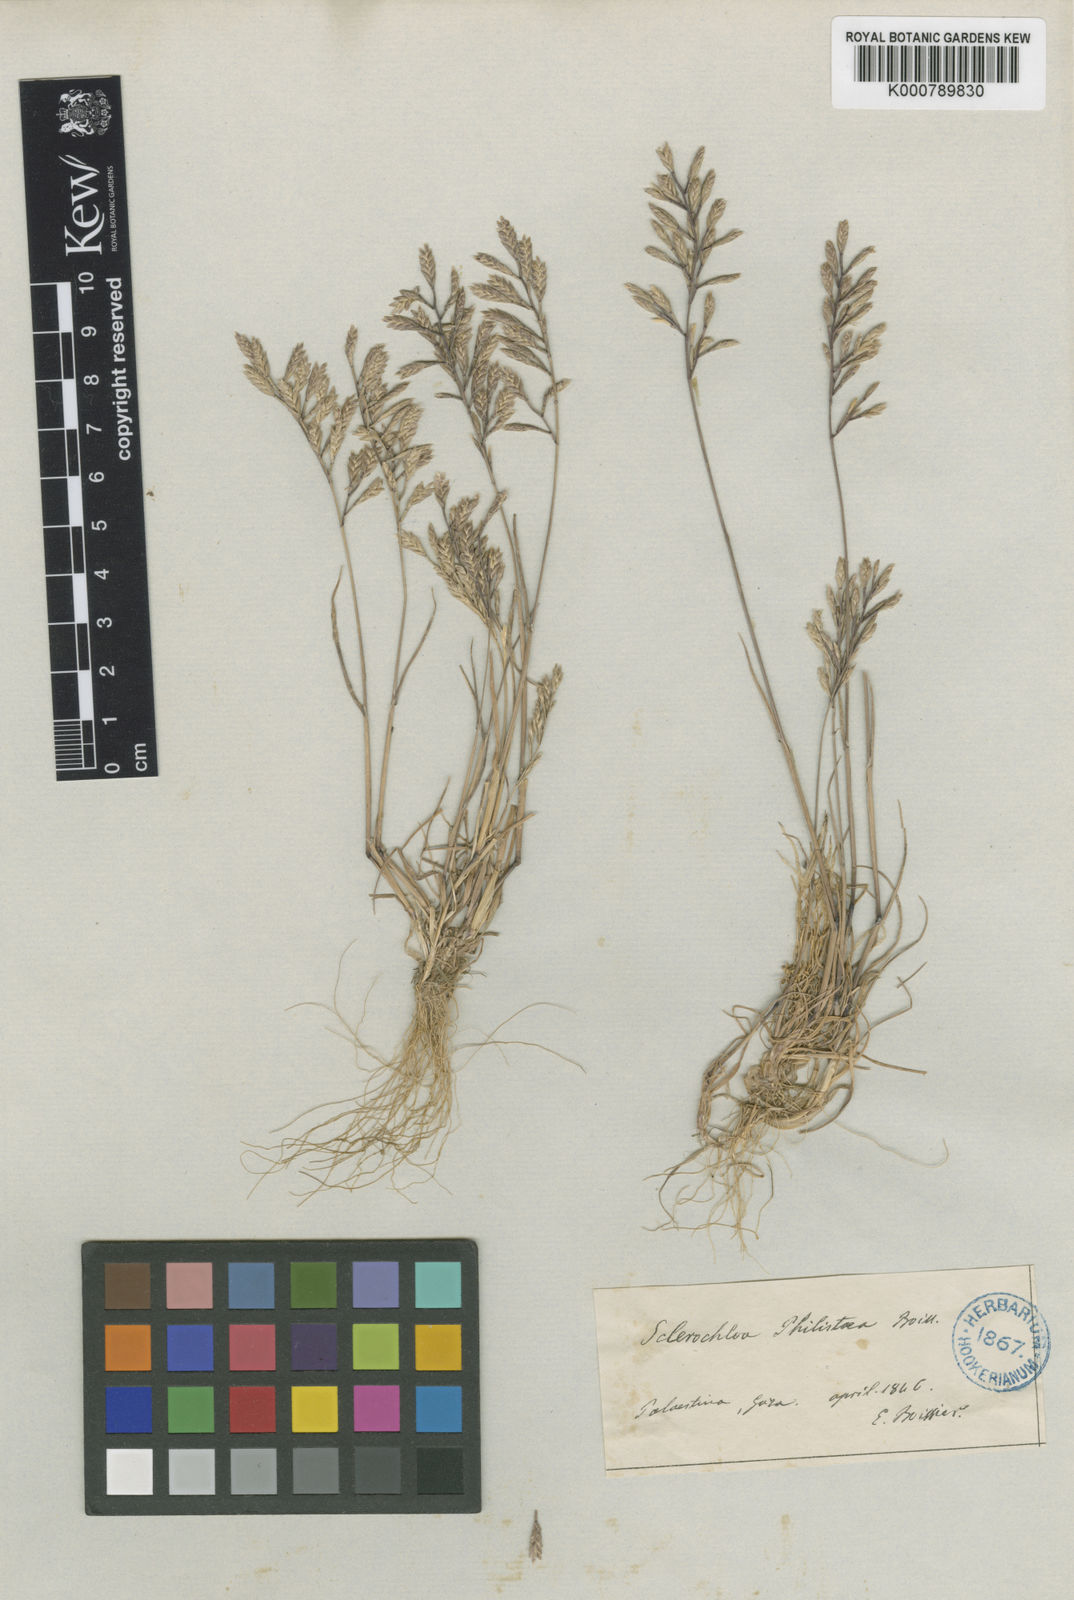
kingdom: Plantae
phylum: Tracheophyta
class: Liliopsida
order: Poales
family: Poaceae
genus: Desmazeria
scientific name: Desmazeria philistaea
